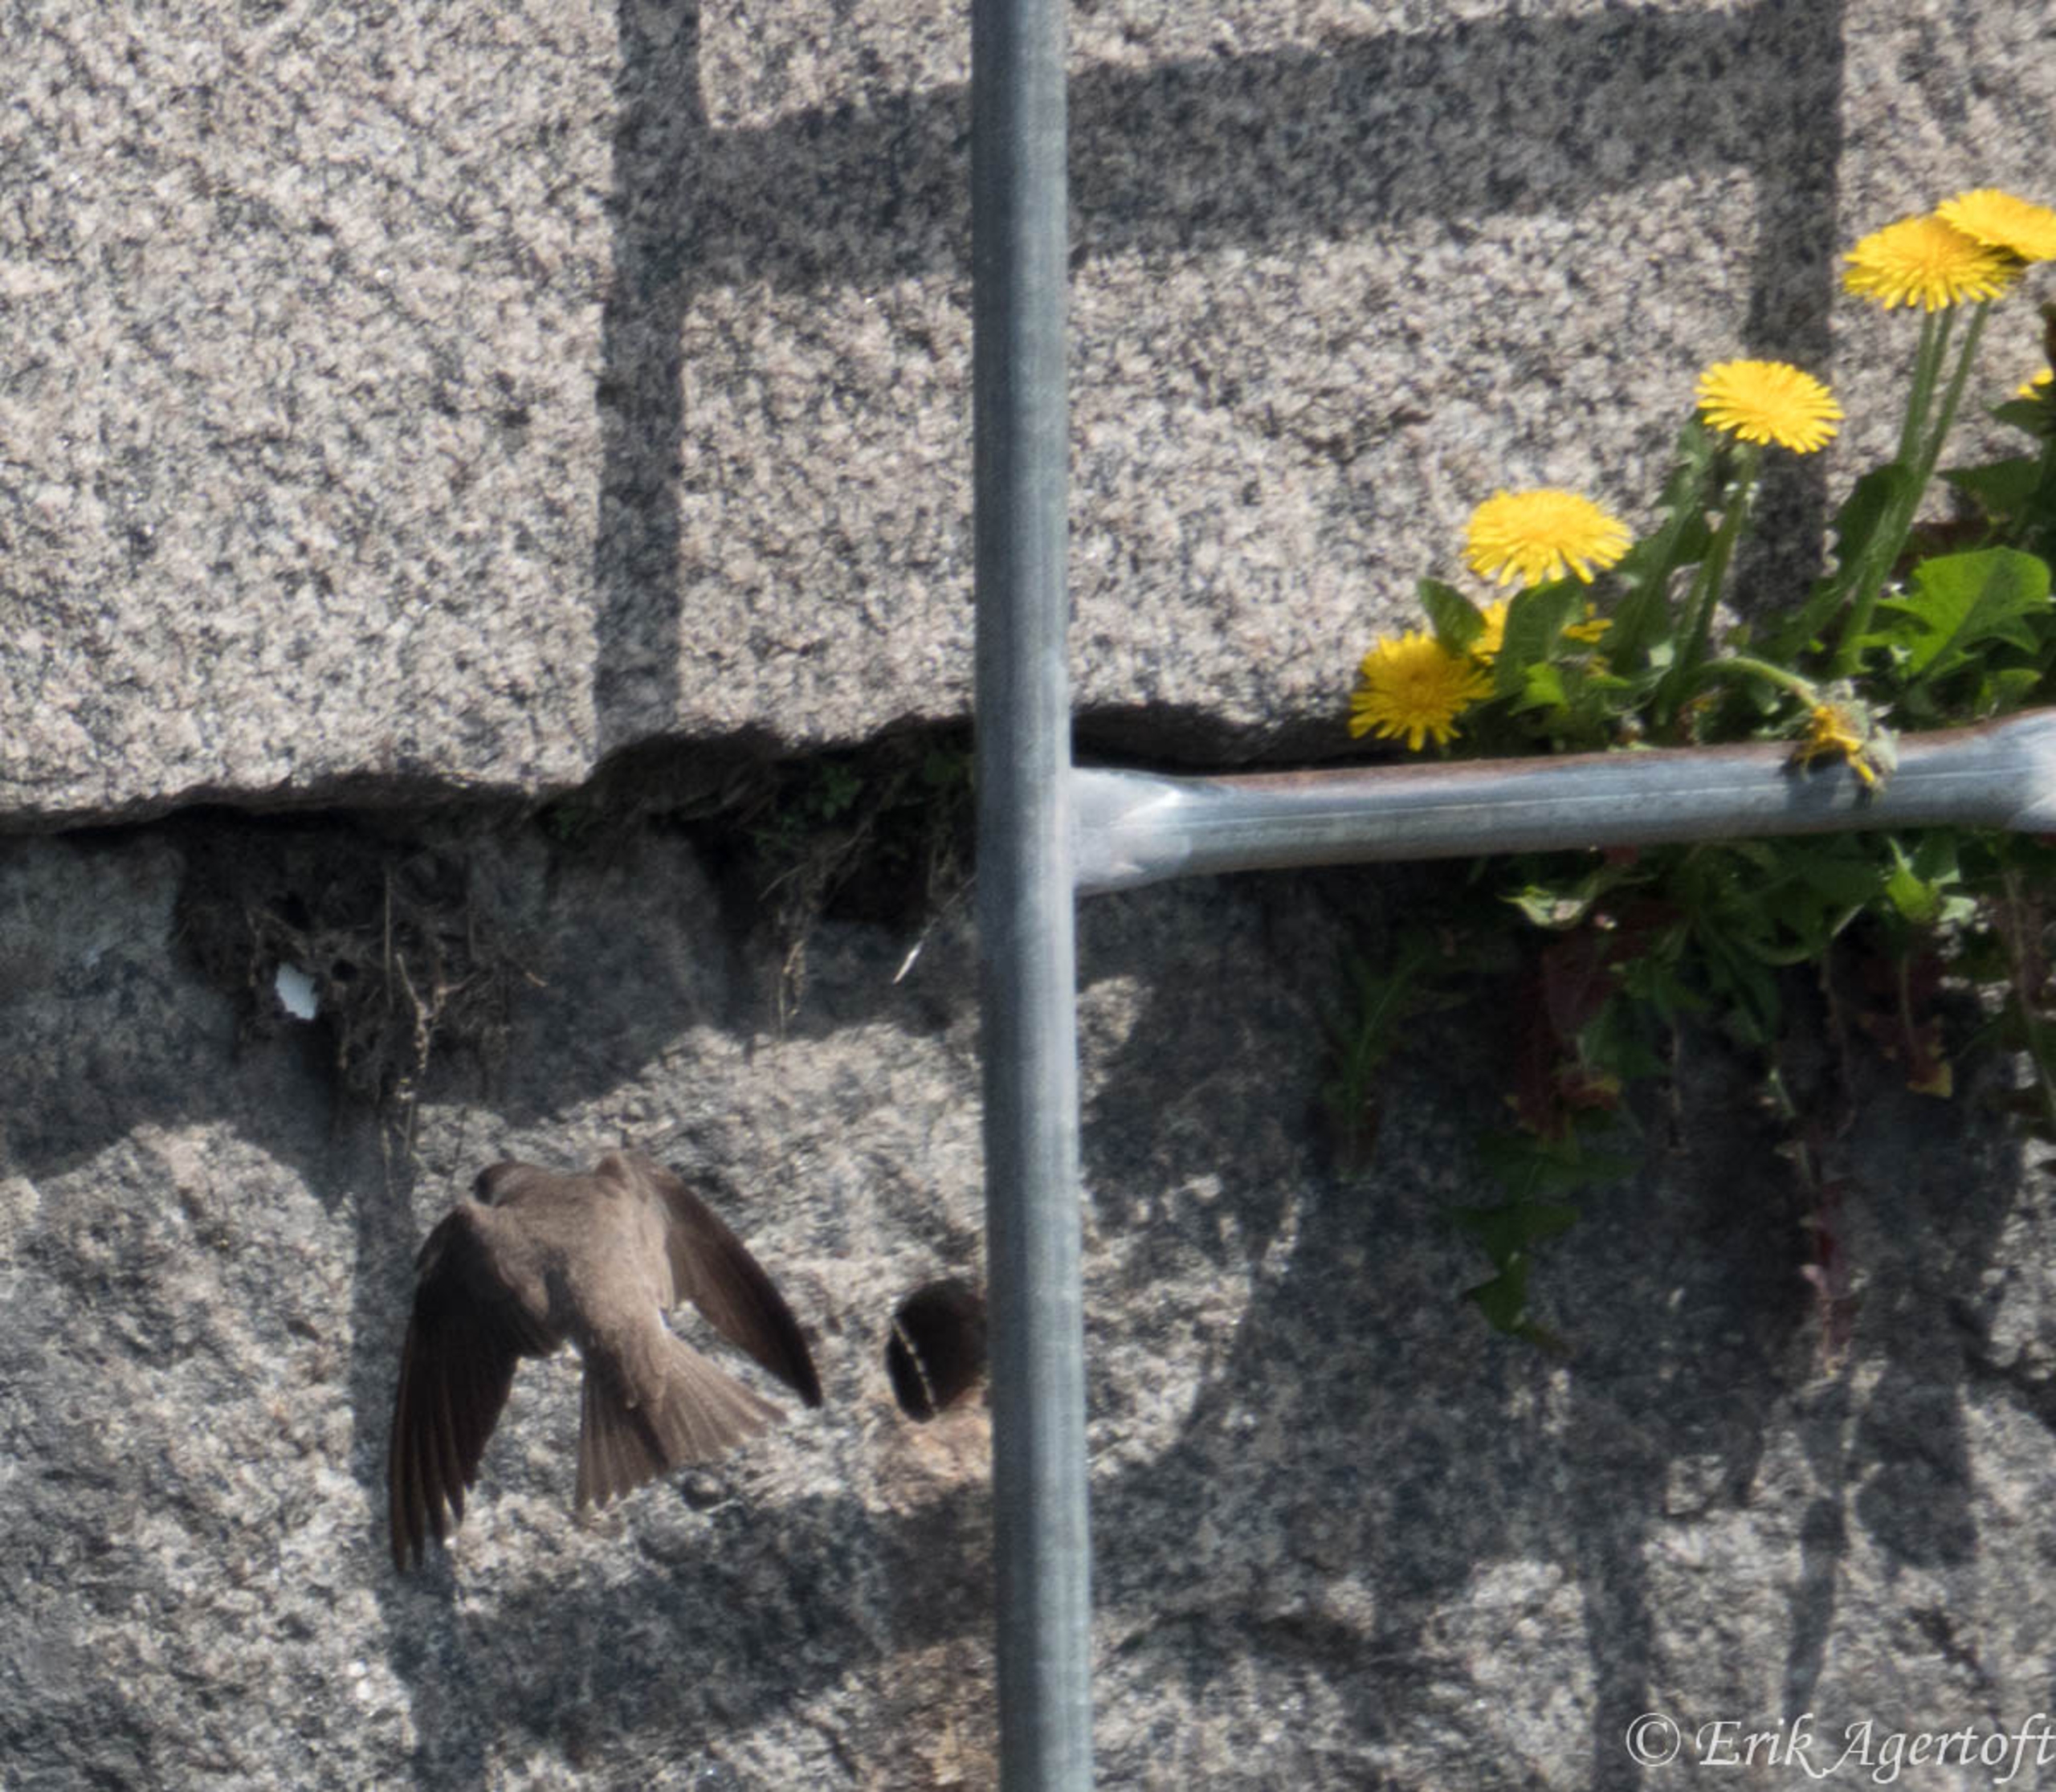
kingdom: Animalia
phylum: Chordata
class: Aves
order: Passeriformes
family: Hirundinidae
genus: Riparia
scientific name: Riparia riparia
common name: Digesvale
